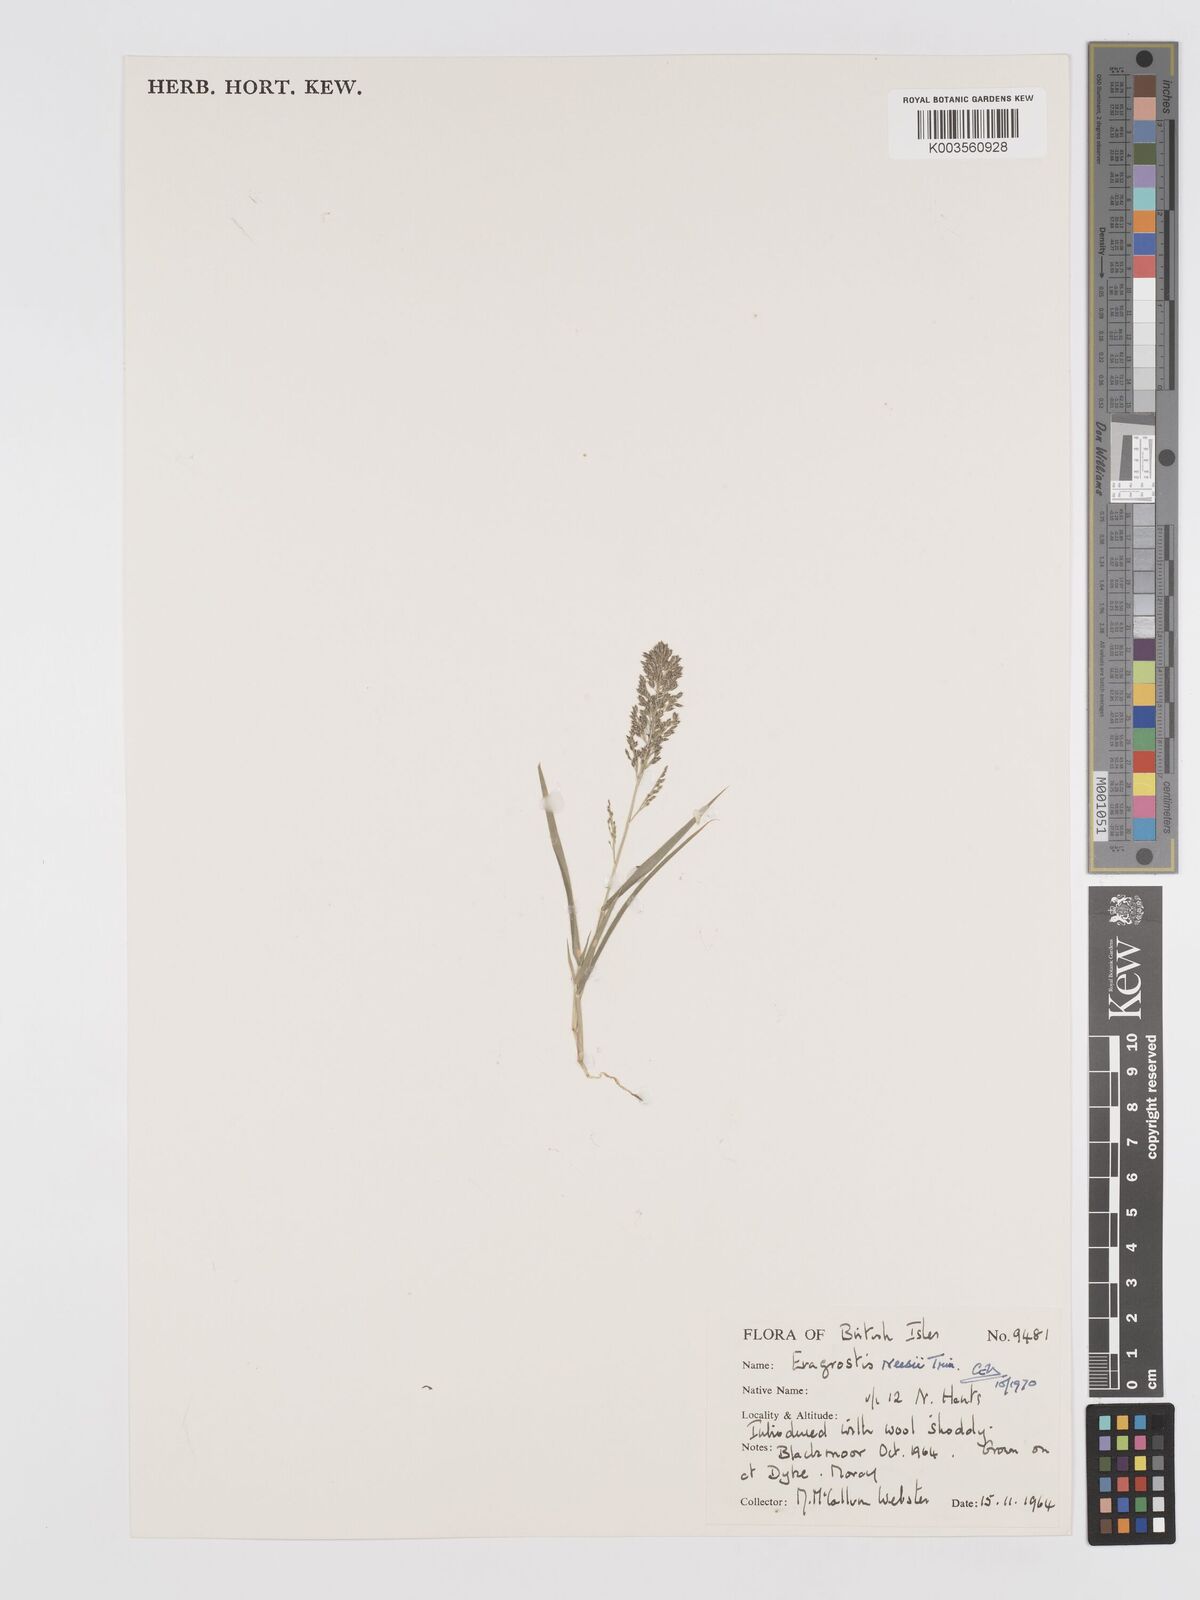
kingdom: Plantae
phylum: Tracheophyta
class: Liliopsida
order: Poales
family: Poaceae
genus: Eragrostis
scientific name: Eragrostis neesii
